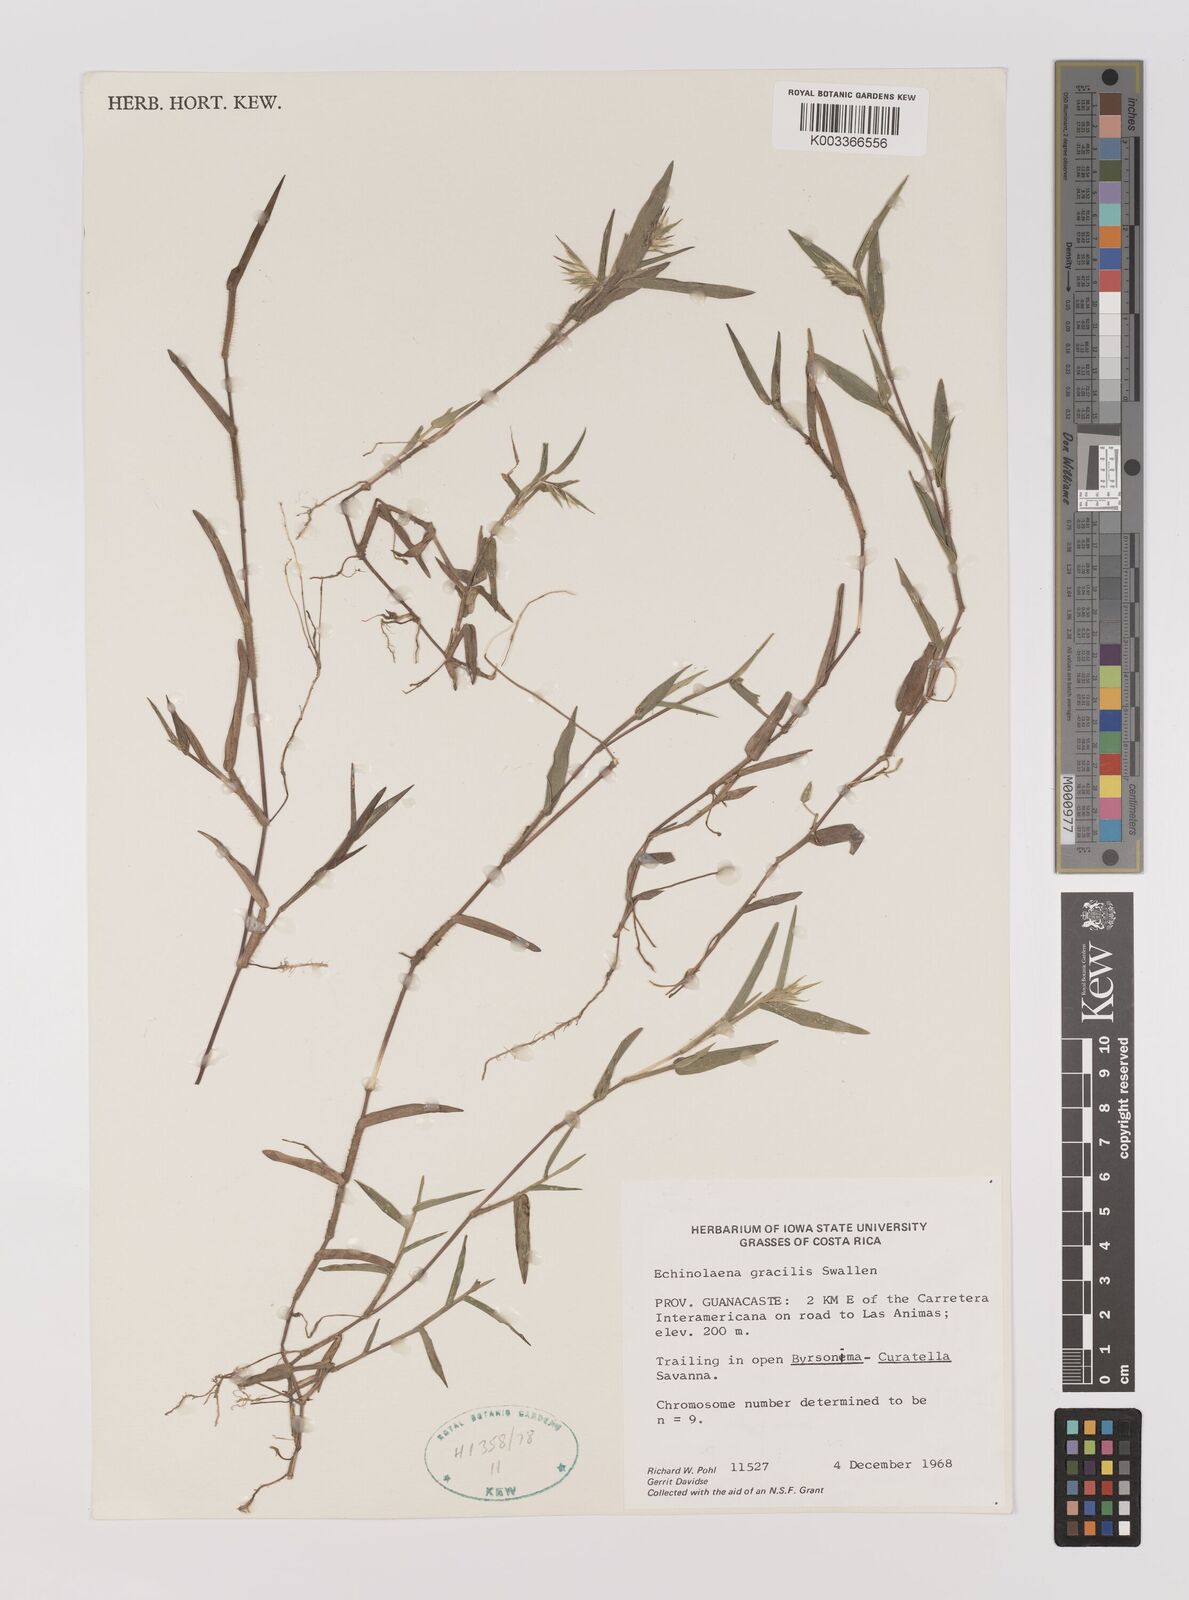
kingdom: Plantae
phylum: Tracheophyta
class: Liliopsida
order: Poales
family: Poaceae
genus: Echinolaena
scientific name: Echinolaena gracilis
